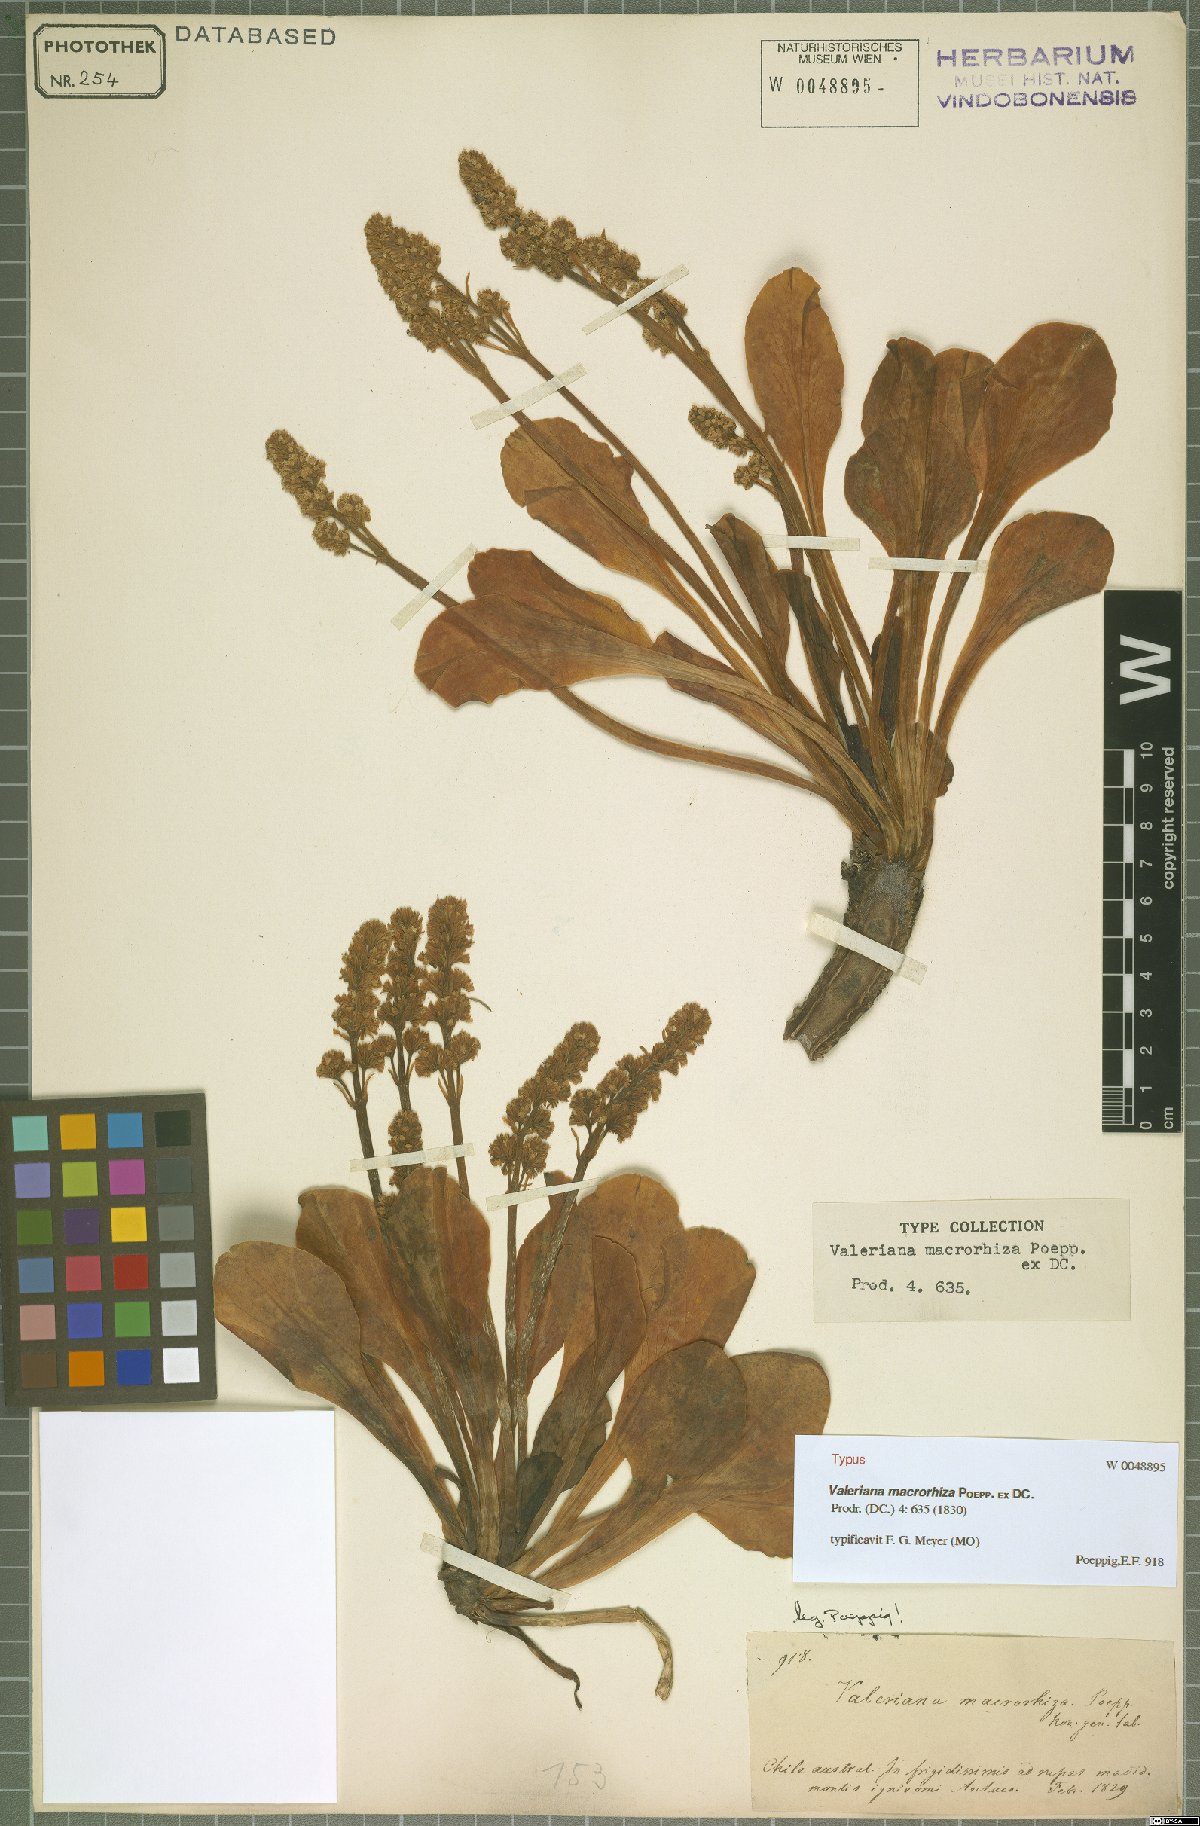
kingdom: Plantae
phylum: Tracheophyta
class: Magnoliopsida
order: Dipsacales
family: Caprifoliaceae
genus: Valeriana
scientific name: Valeriana macrorhiza
